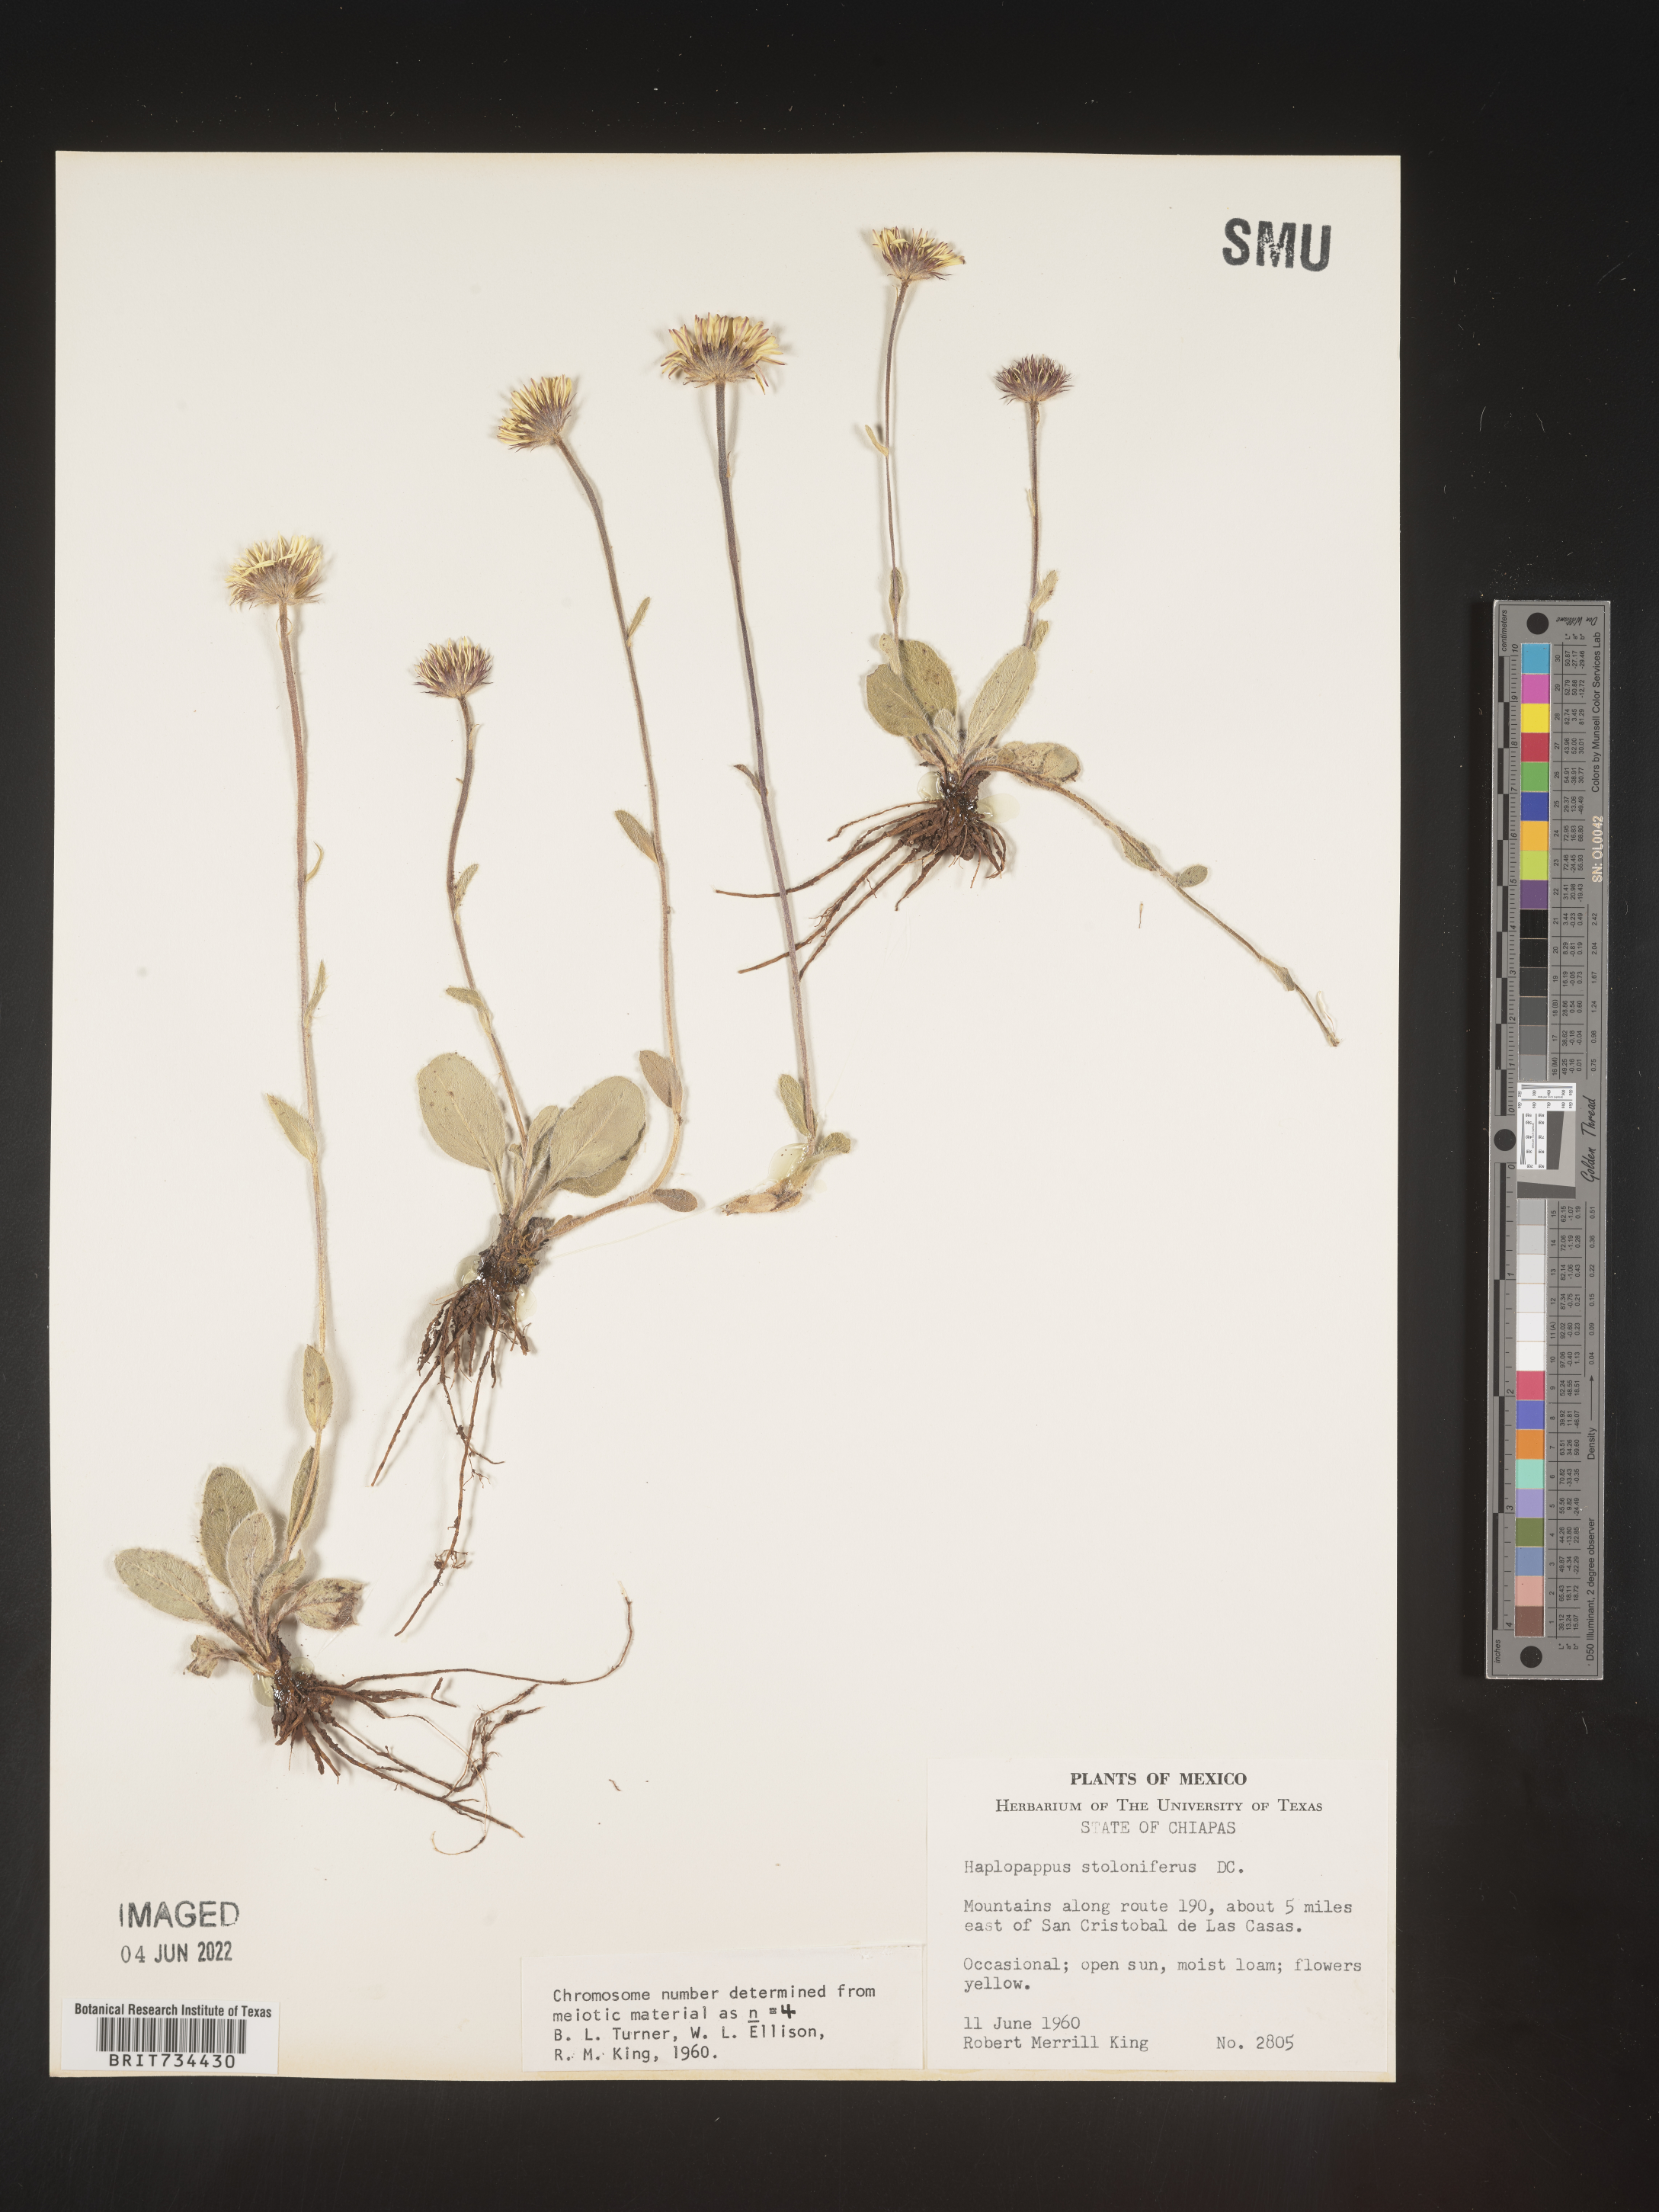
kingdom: Plantae
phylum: Tracheophyta
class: Magnoliopsida
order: Asterales
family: Asteraceae
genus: Osbertia
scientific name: Osbertia stolonifera
